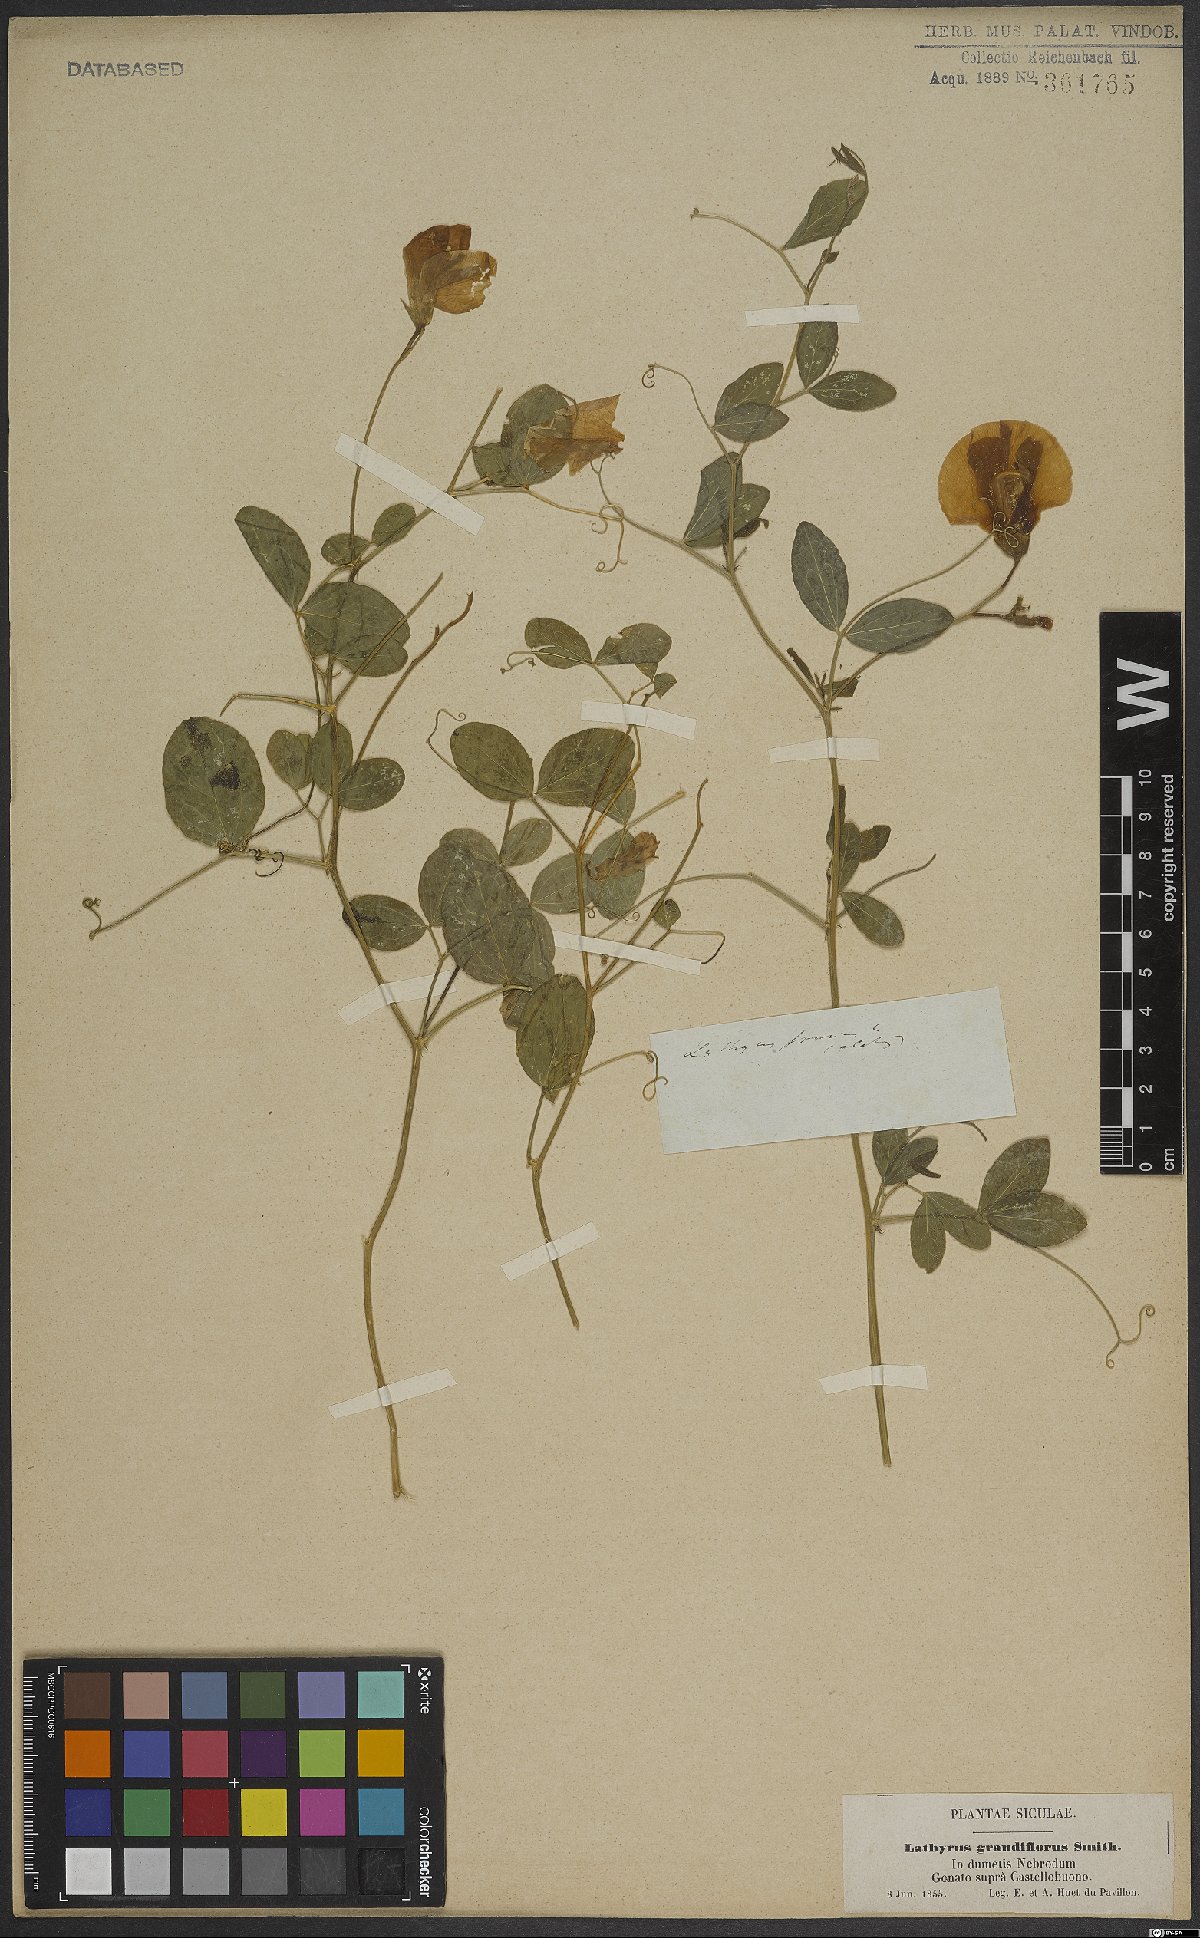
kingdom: Plantae
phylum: Tracheophyta
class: Magnoliopsida
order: Fabales
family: Fabaceae
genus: Lathyrus
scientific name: Lathyrus grandiflorus
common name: Two-flowered everlasting-pea
